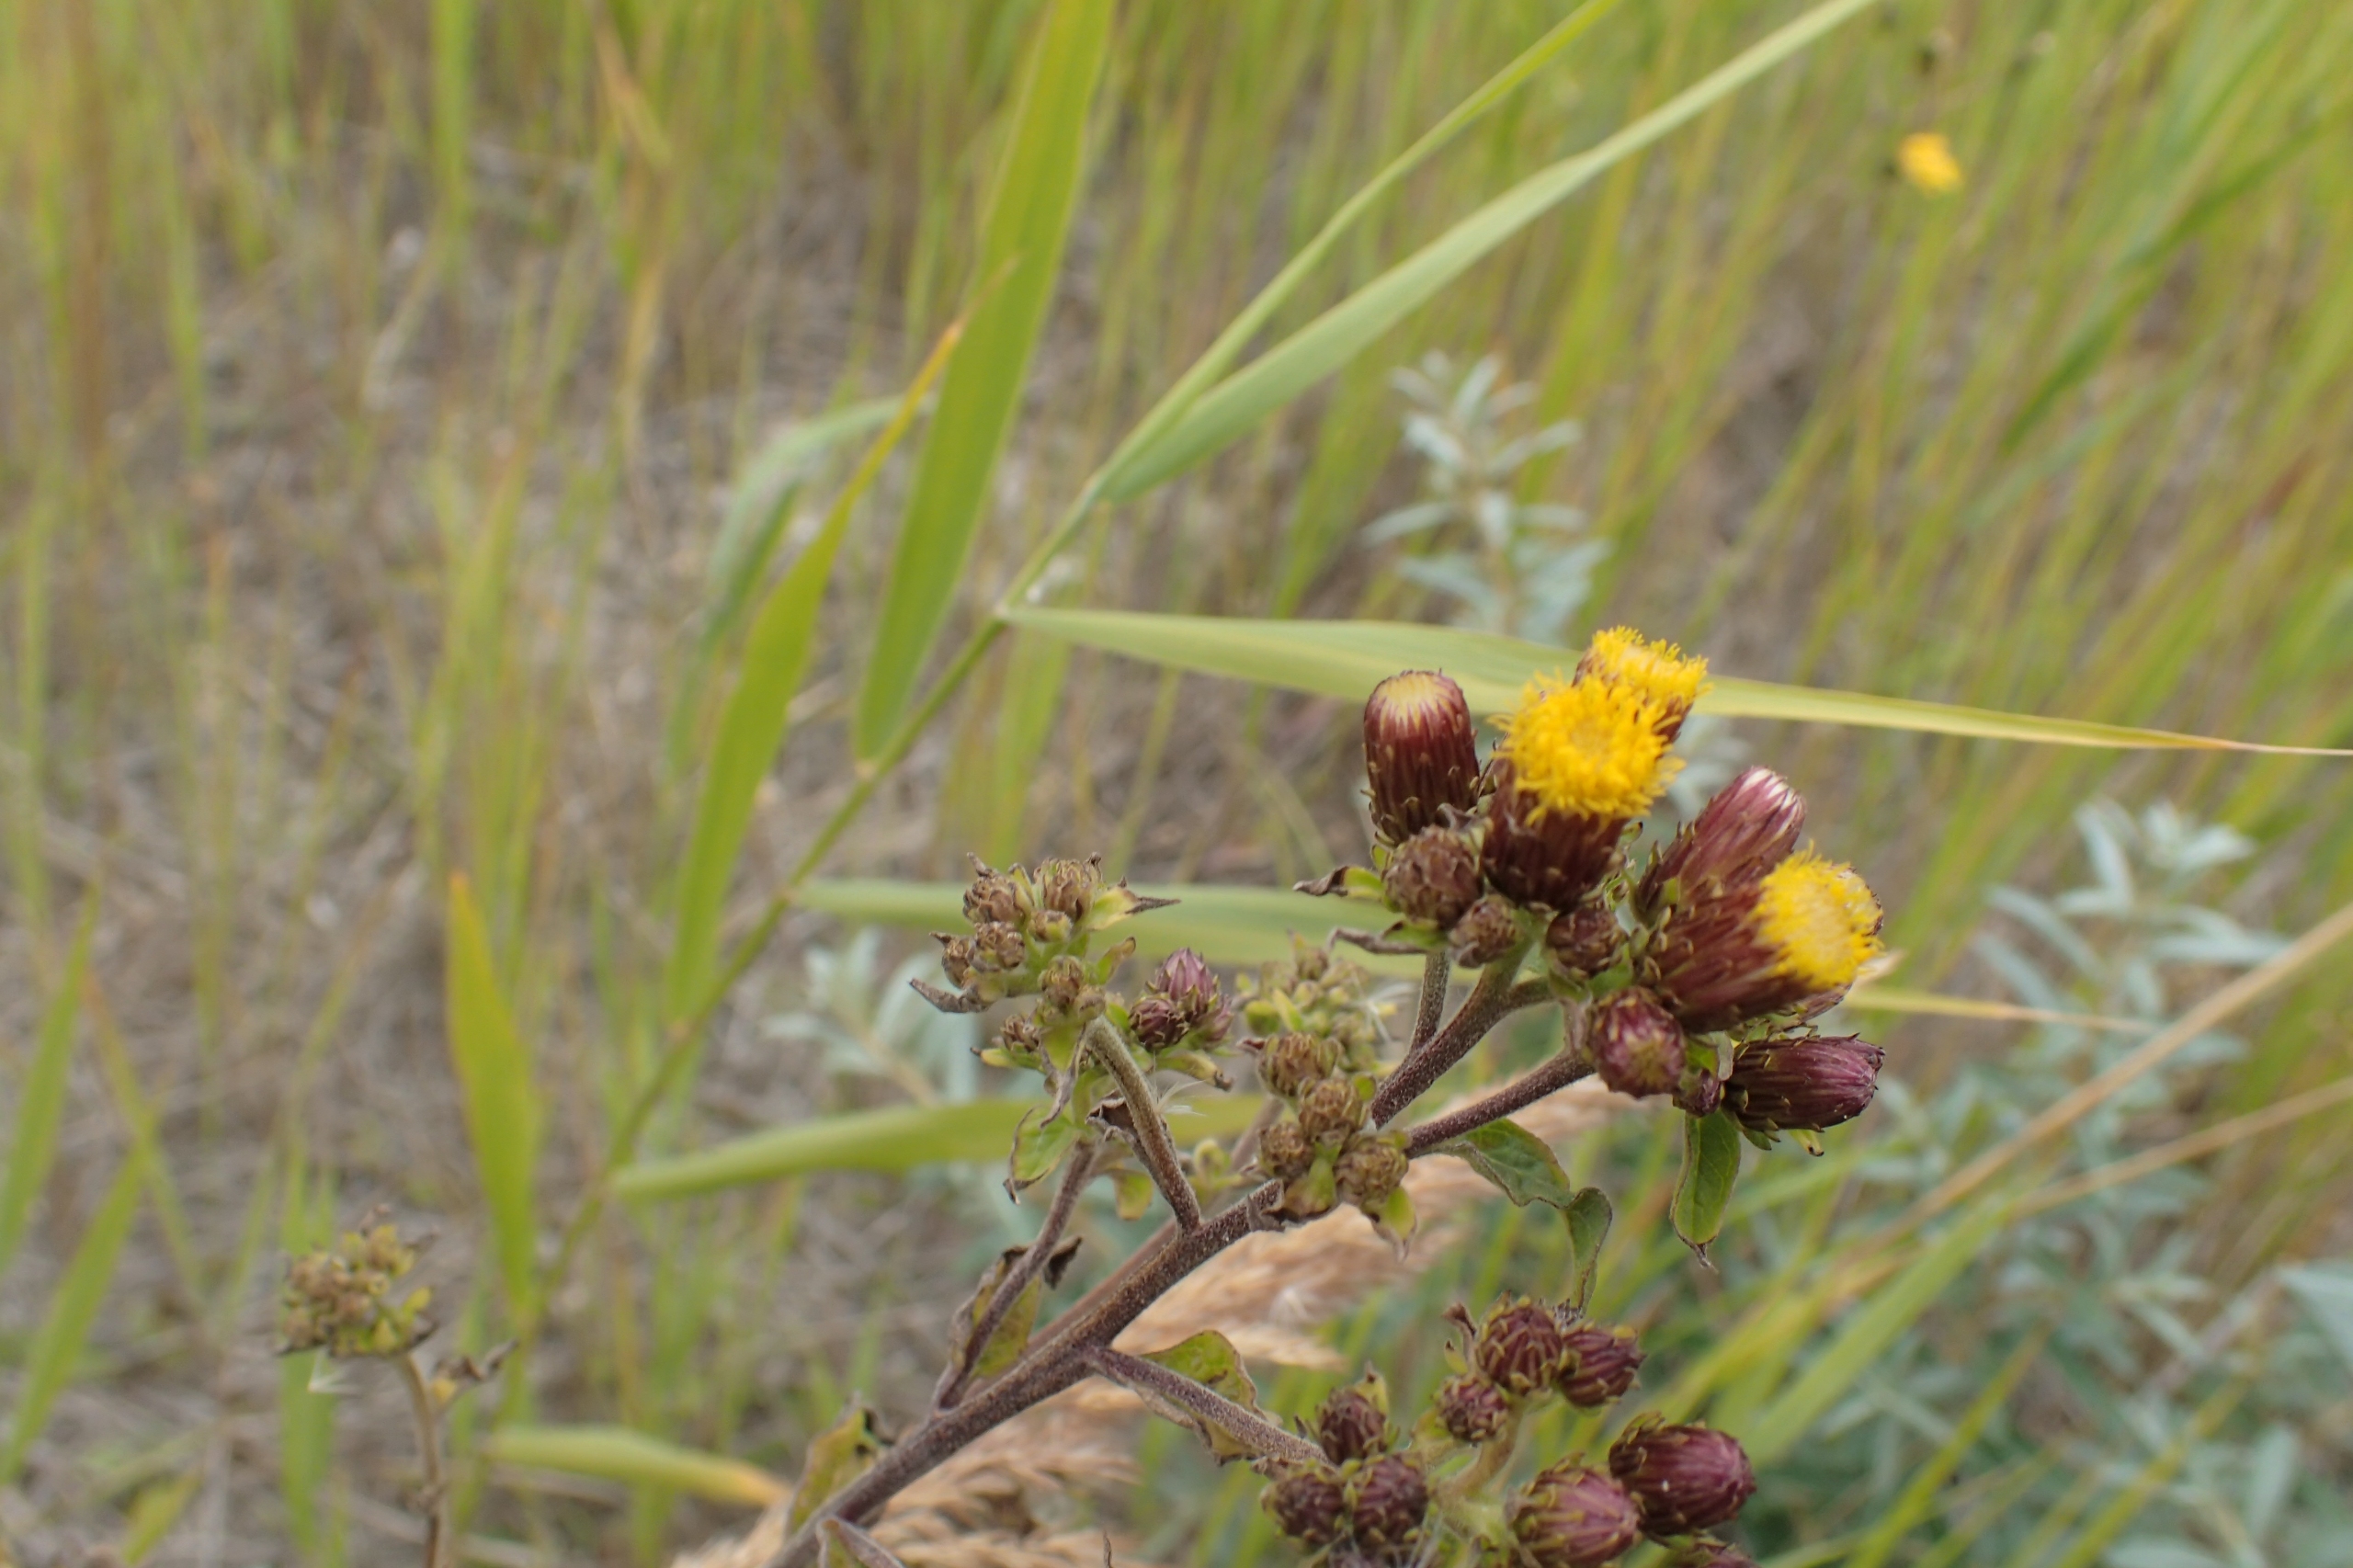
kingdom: Plantae
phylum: Tracheophyta
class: Magnoliopsida
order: Asterales
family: Asteraceae
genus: Pentanema
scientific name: Pentanema squarrosum
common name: Trekløft-alant
